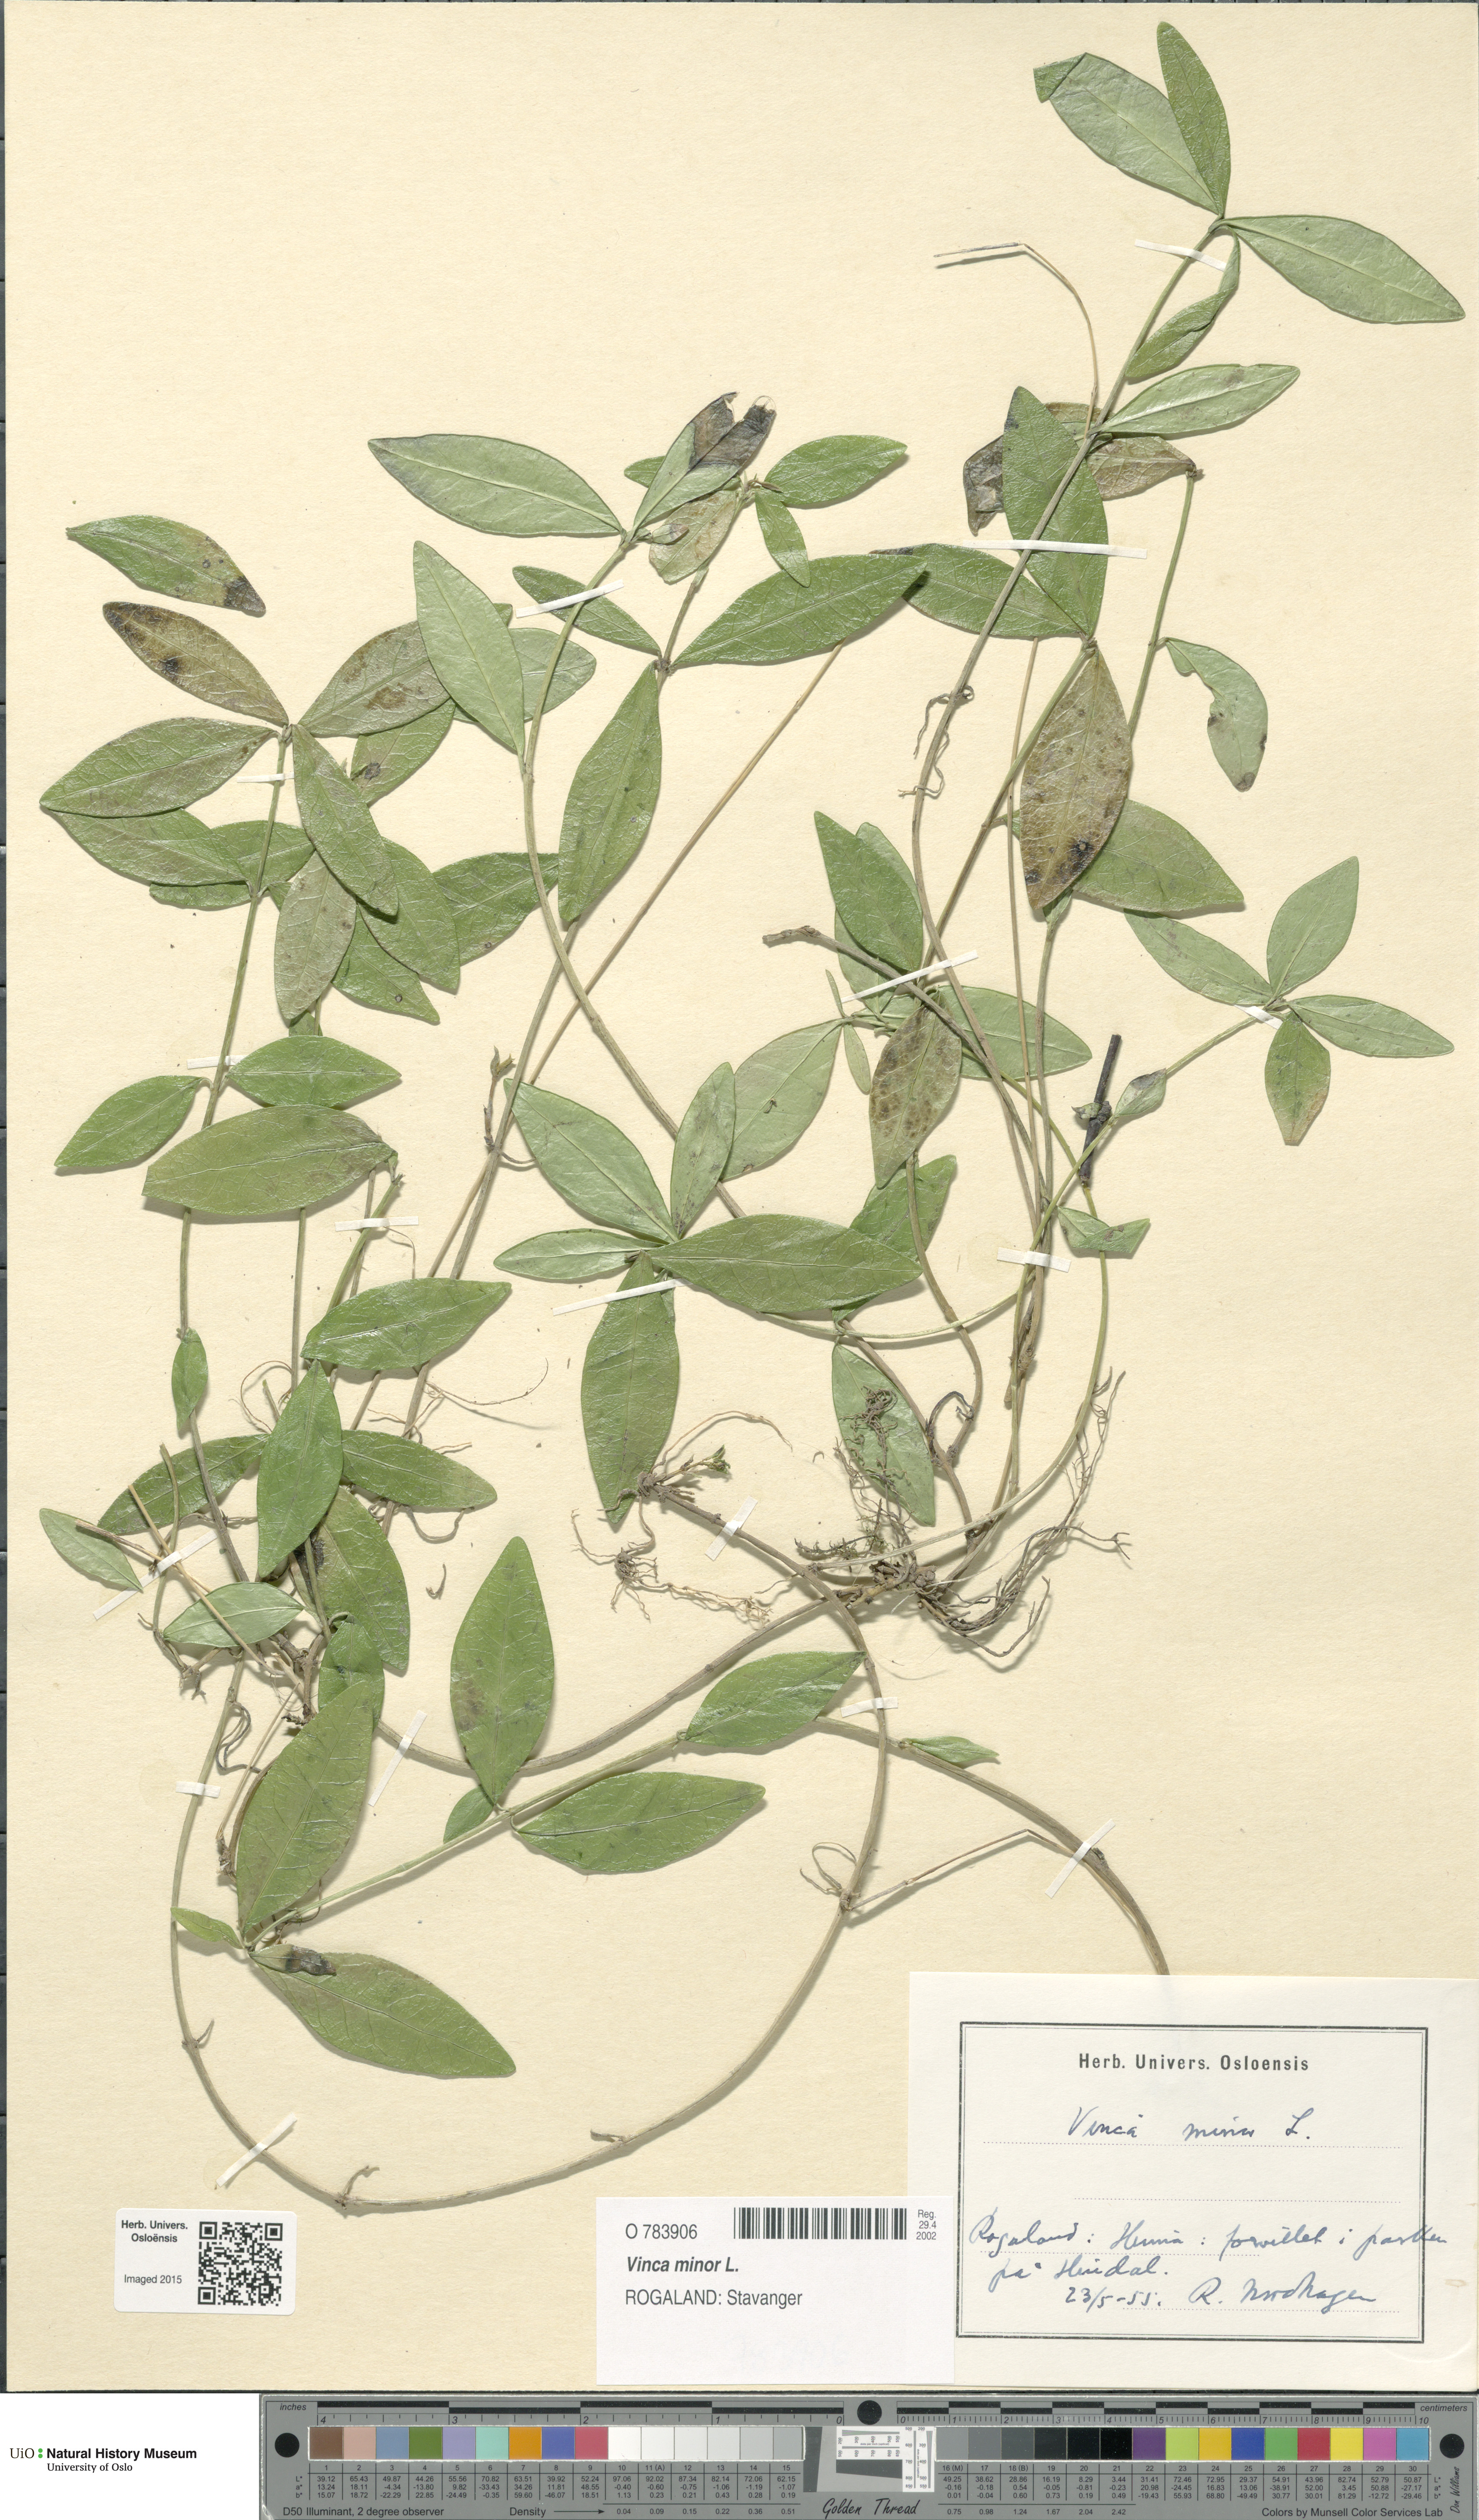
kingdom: Plantae
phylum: Tracheophyta
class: Magnoliopsida
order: Gentianales
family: Apocynaceae
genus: Vinca
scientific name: Vinca minor
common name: Lesser periwinkle
